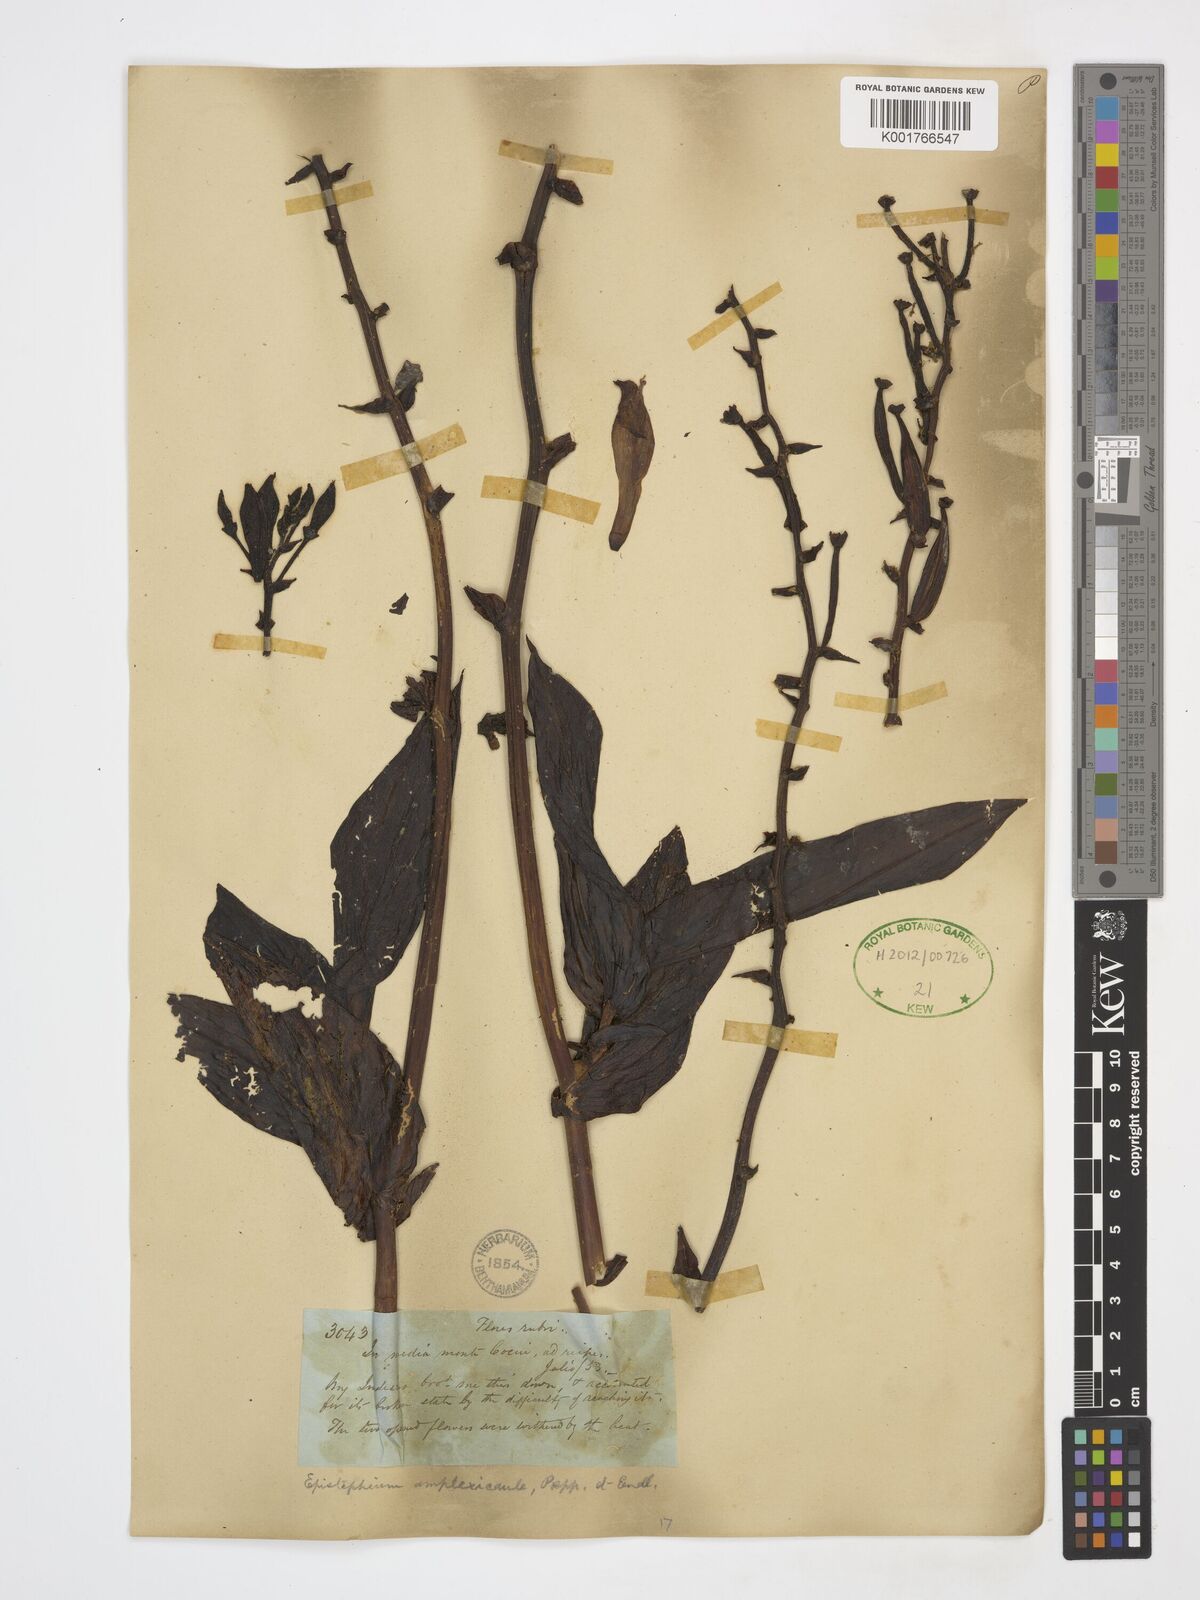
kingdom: Plantae
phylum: Tracheophyta
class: Liliopsida
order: Asparagales
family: Orchidaceae
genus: Epistephium
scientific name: Epistephium amplexicaule
